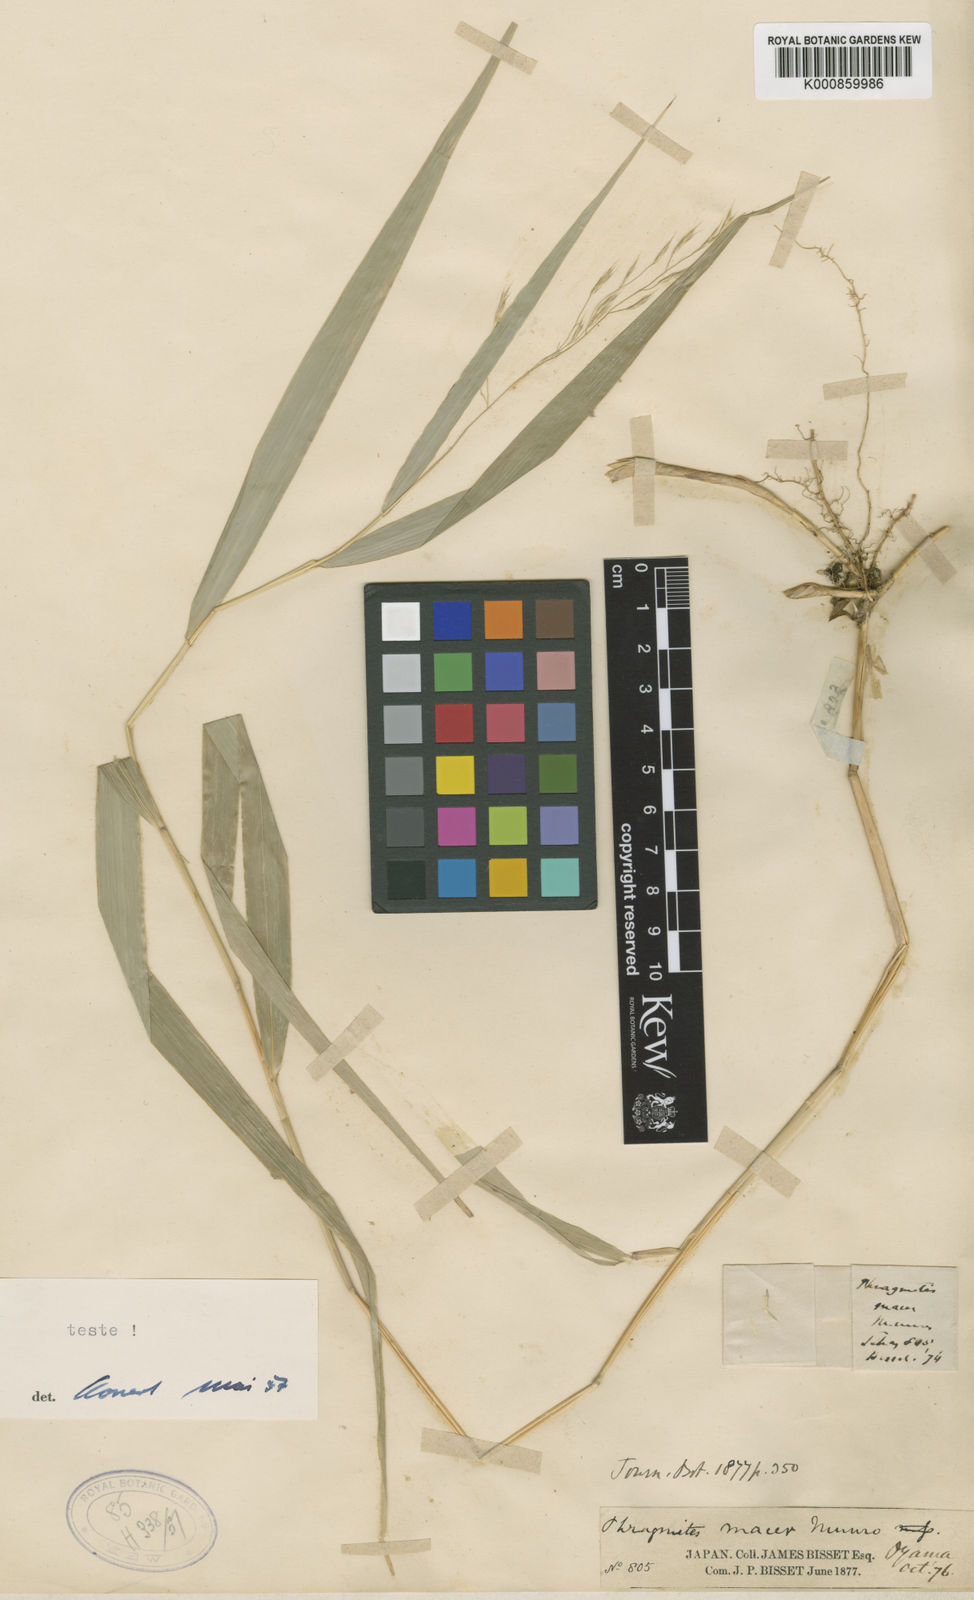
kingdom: Plantae
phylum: Tracheophyta
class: Liliopsida
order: Poales
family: Poaceae
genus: Hakonechloa
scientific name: Hakonechloa macra
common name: Hakone grass
